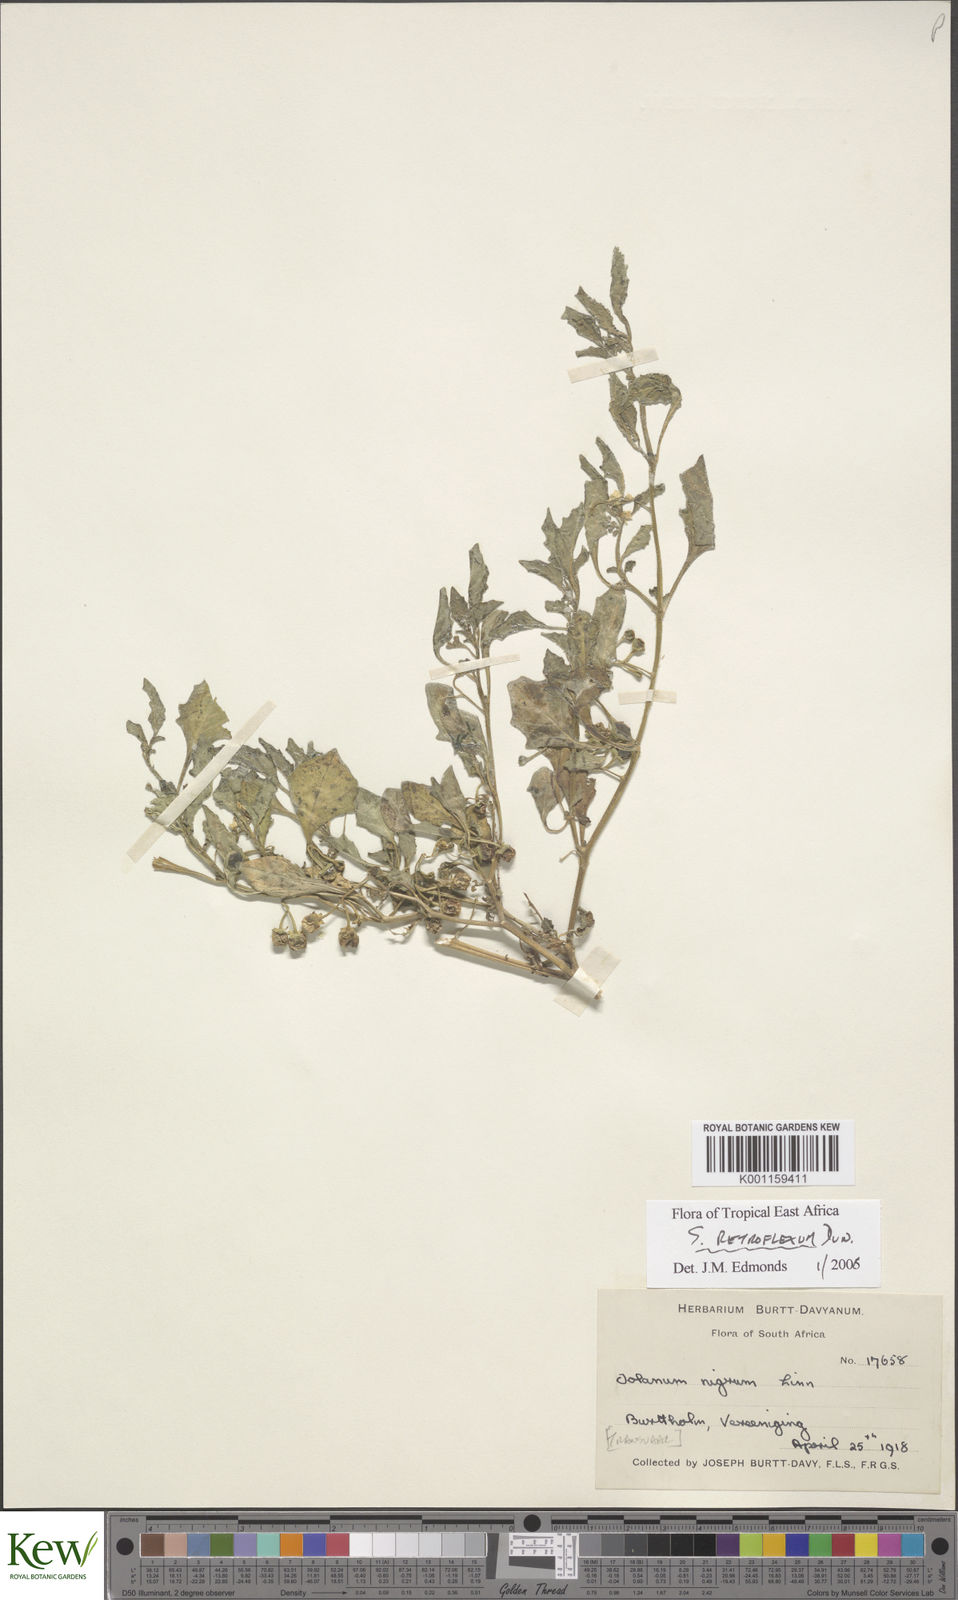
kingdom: Plantae
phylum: Tracheophyta
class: Magnoliopsida
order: Solanales
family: Solanaceae
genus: Solanum
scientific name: Solanum retroflexum
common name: Wonderberry
